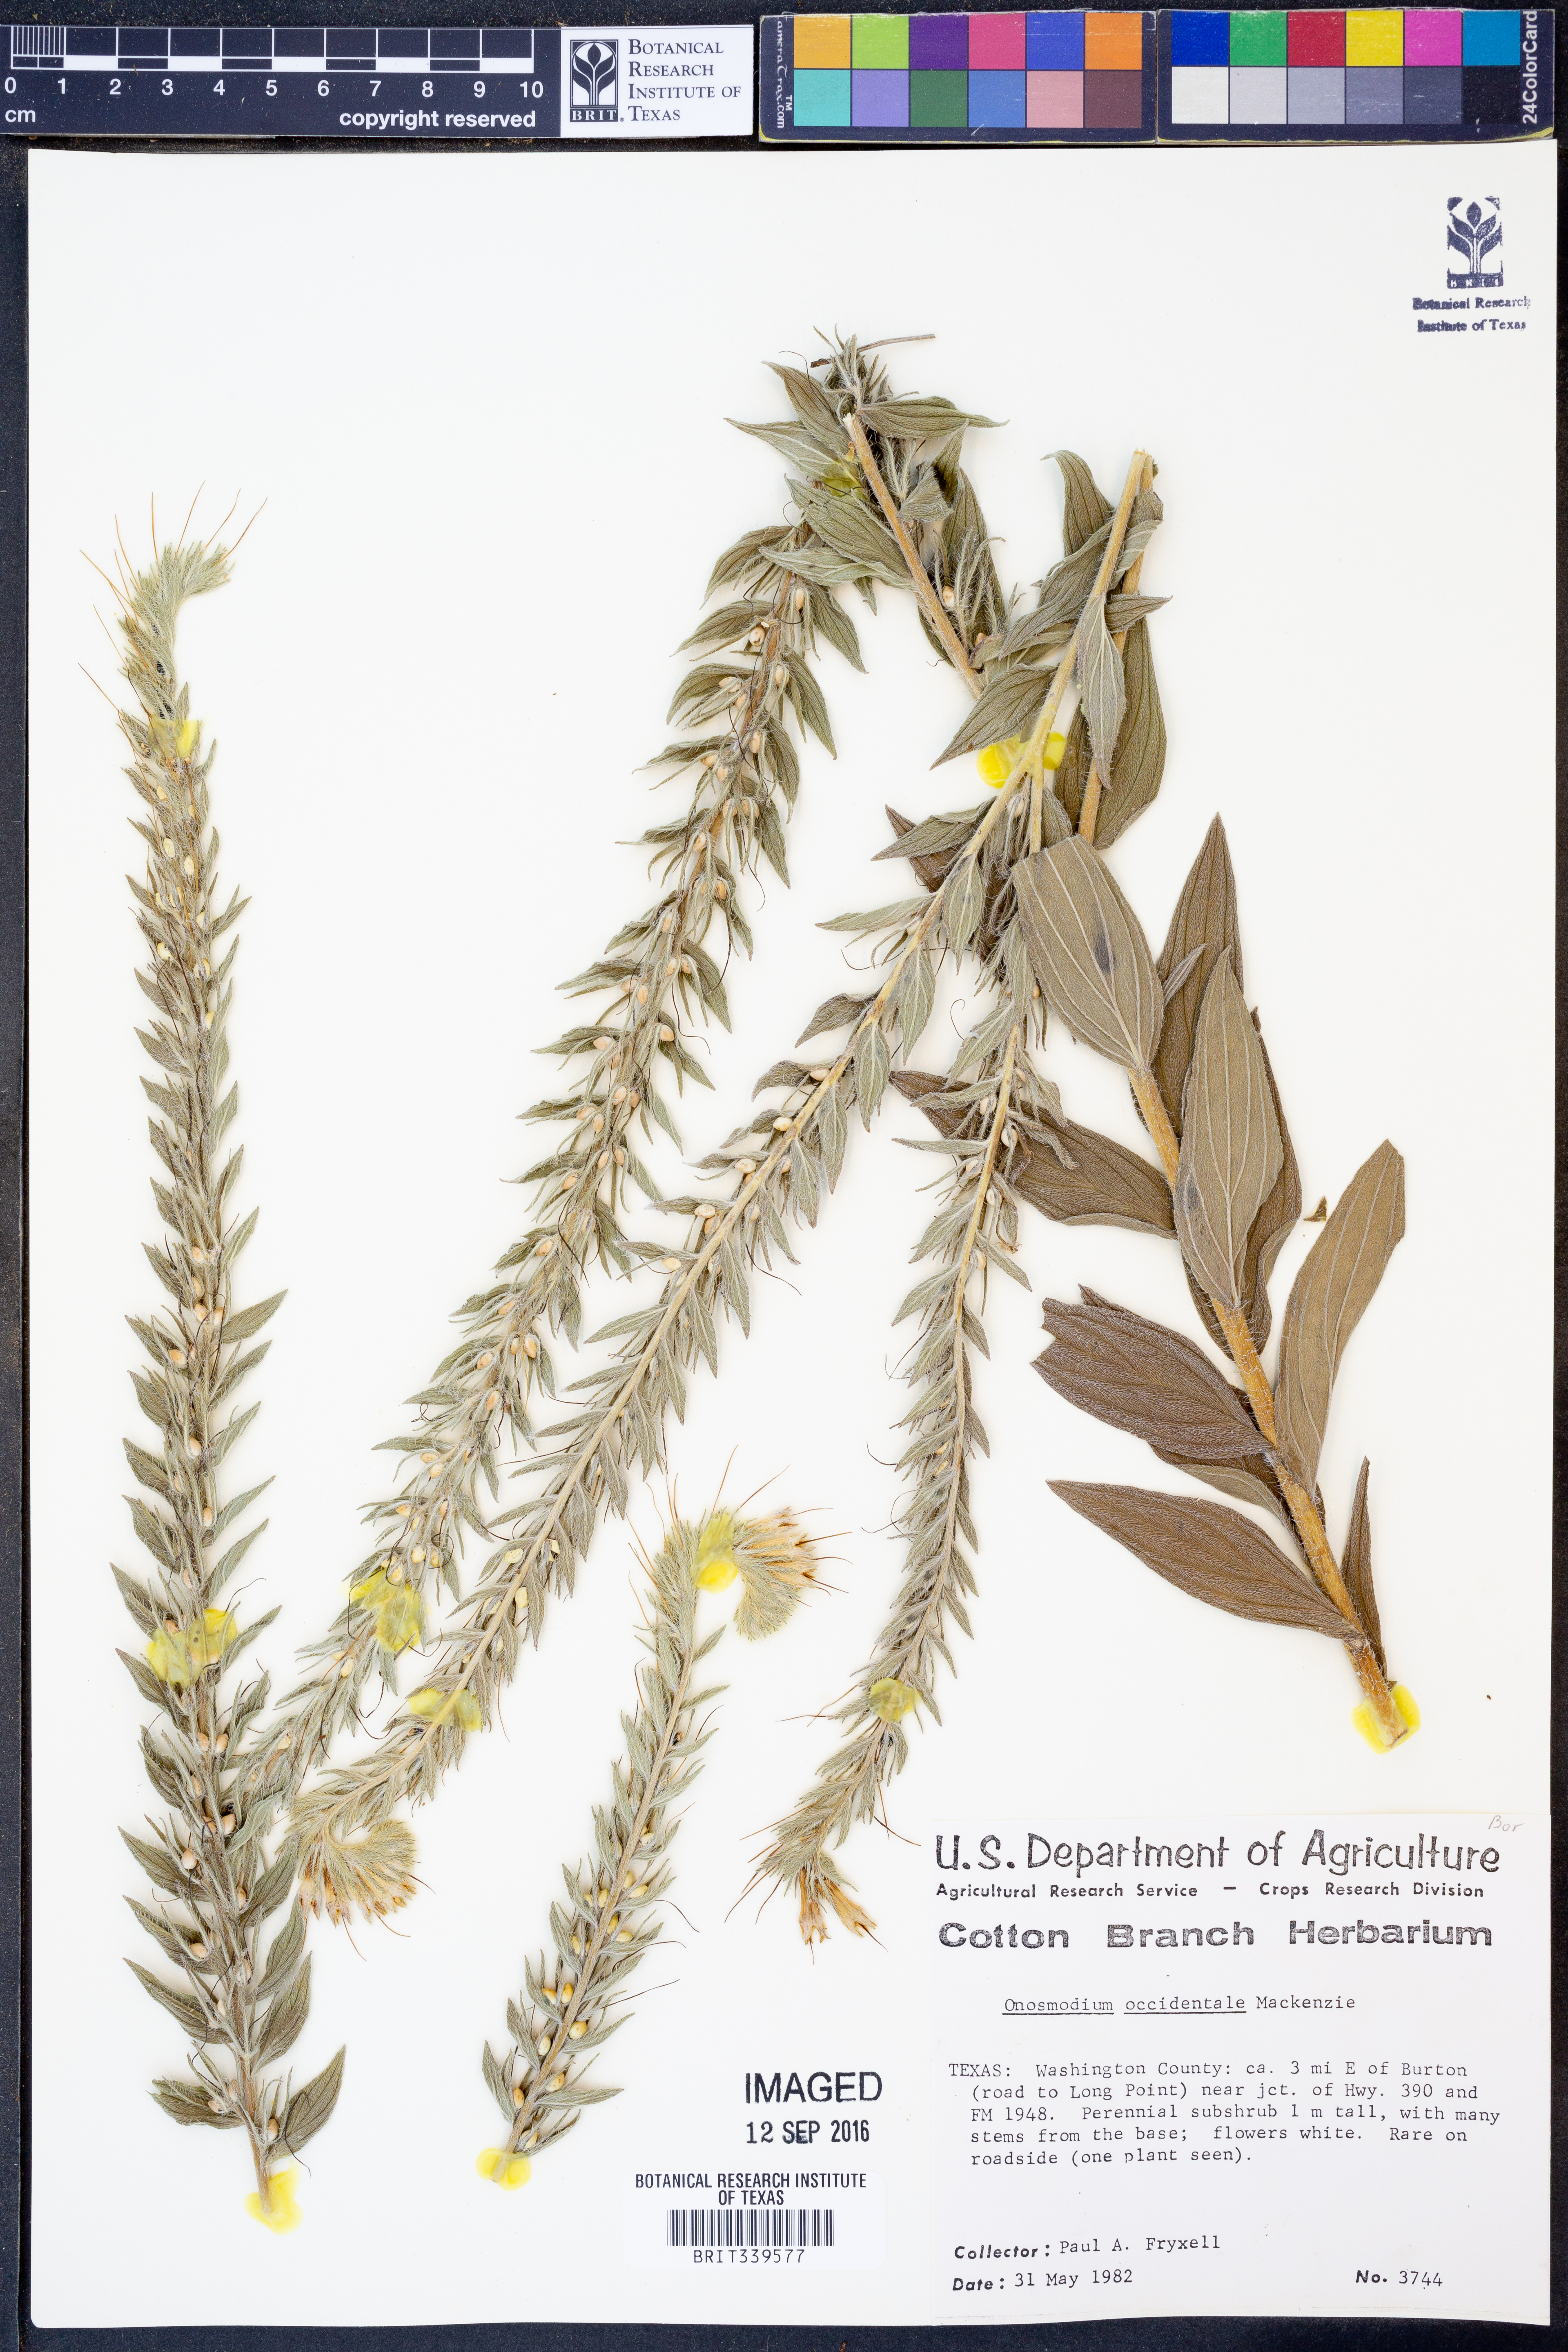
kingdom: Plantae
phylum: Tracheophyta
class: Magnoliopsida
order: Boraginales
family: Boraginaceae
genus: Lithospermum
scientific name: Lithospermum occidentale
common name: Western false gromwell
